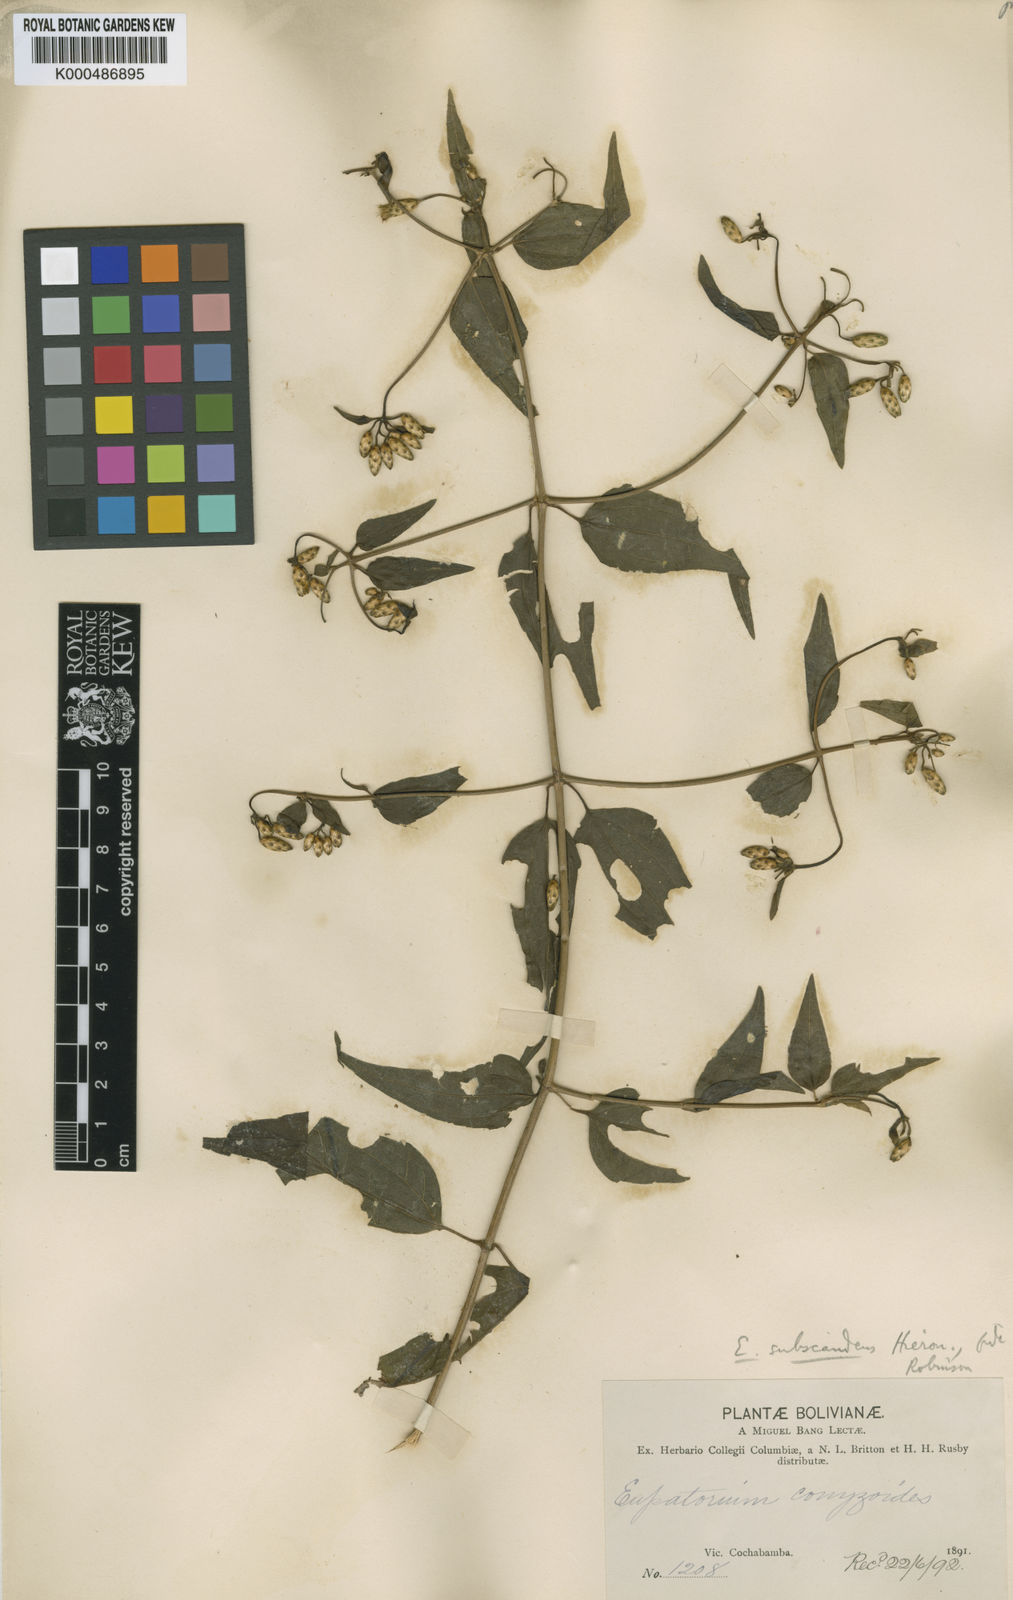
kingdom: Plantae
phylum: Tracheophyta
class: Magnoliopsida
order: Asterales
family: Asteraceae
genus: Chromolaena
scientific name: Chromolaena subscandens
